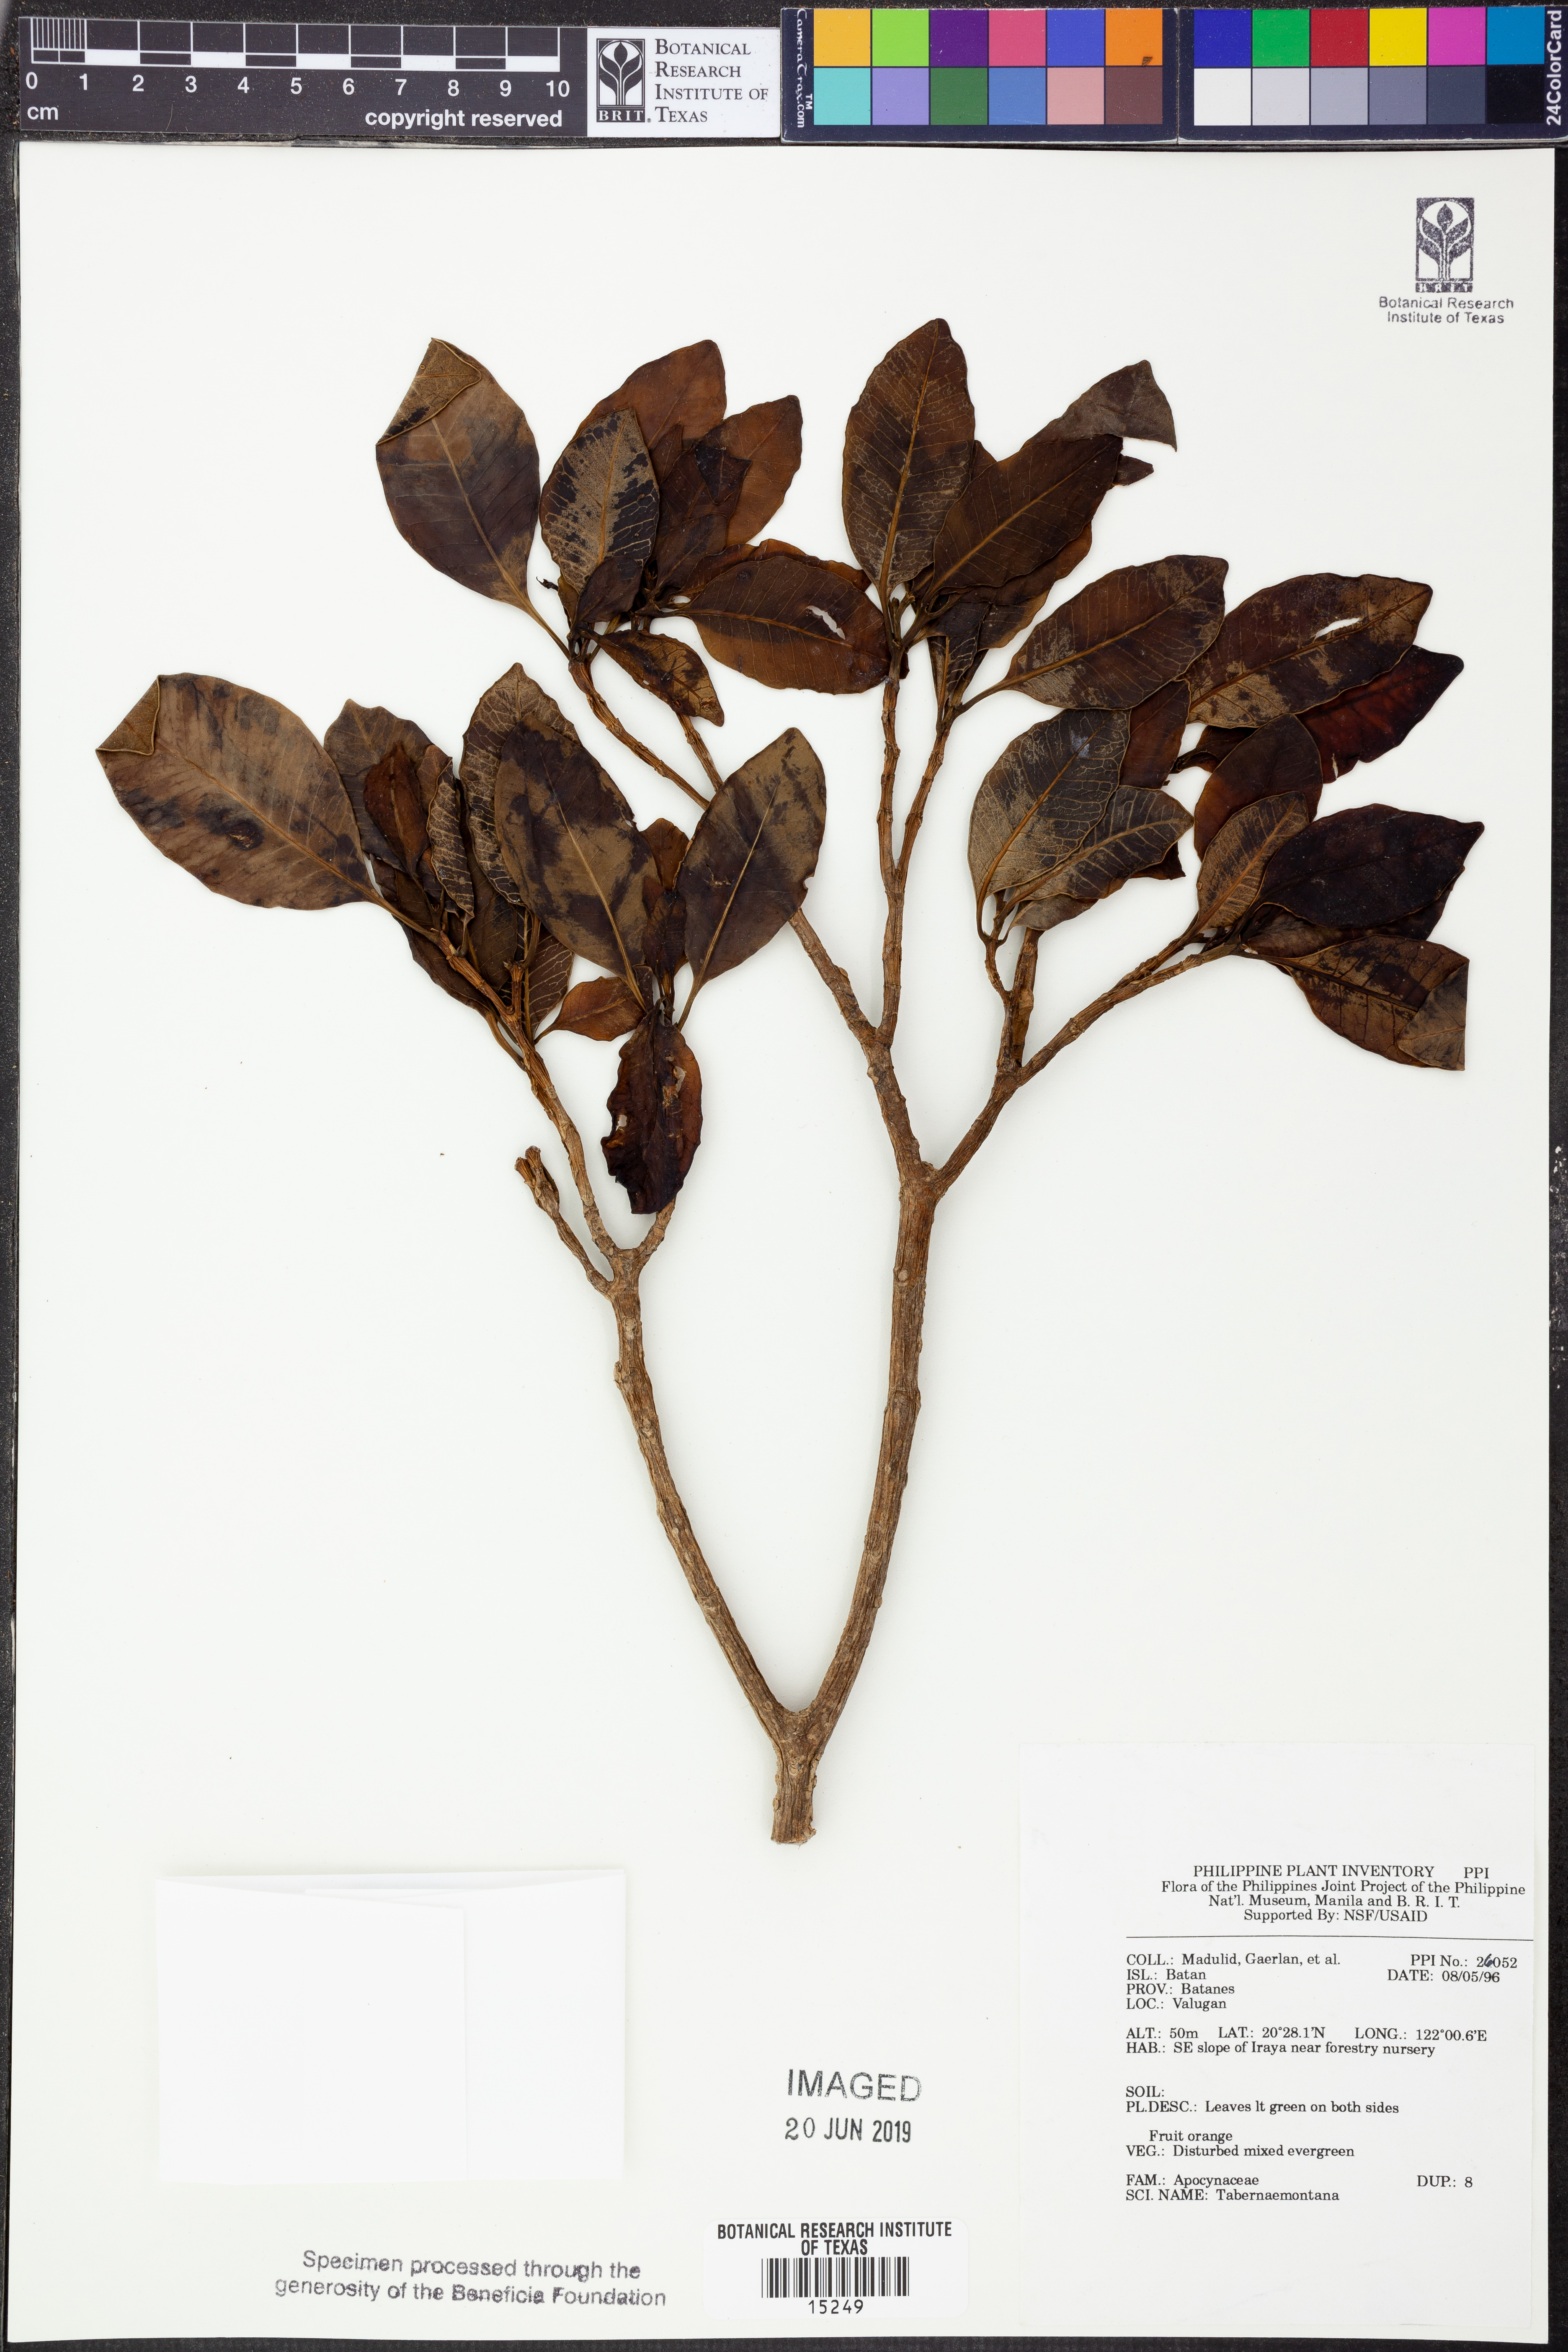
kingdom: Plantae
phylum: Tracheophyta
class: Magnoliopsida
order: Gentianales
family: Apocynaceae
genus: Tabernaemontana
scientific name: Tabernaemontana
